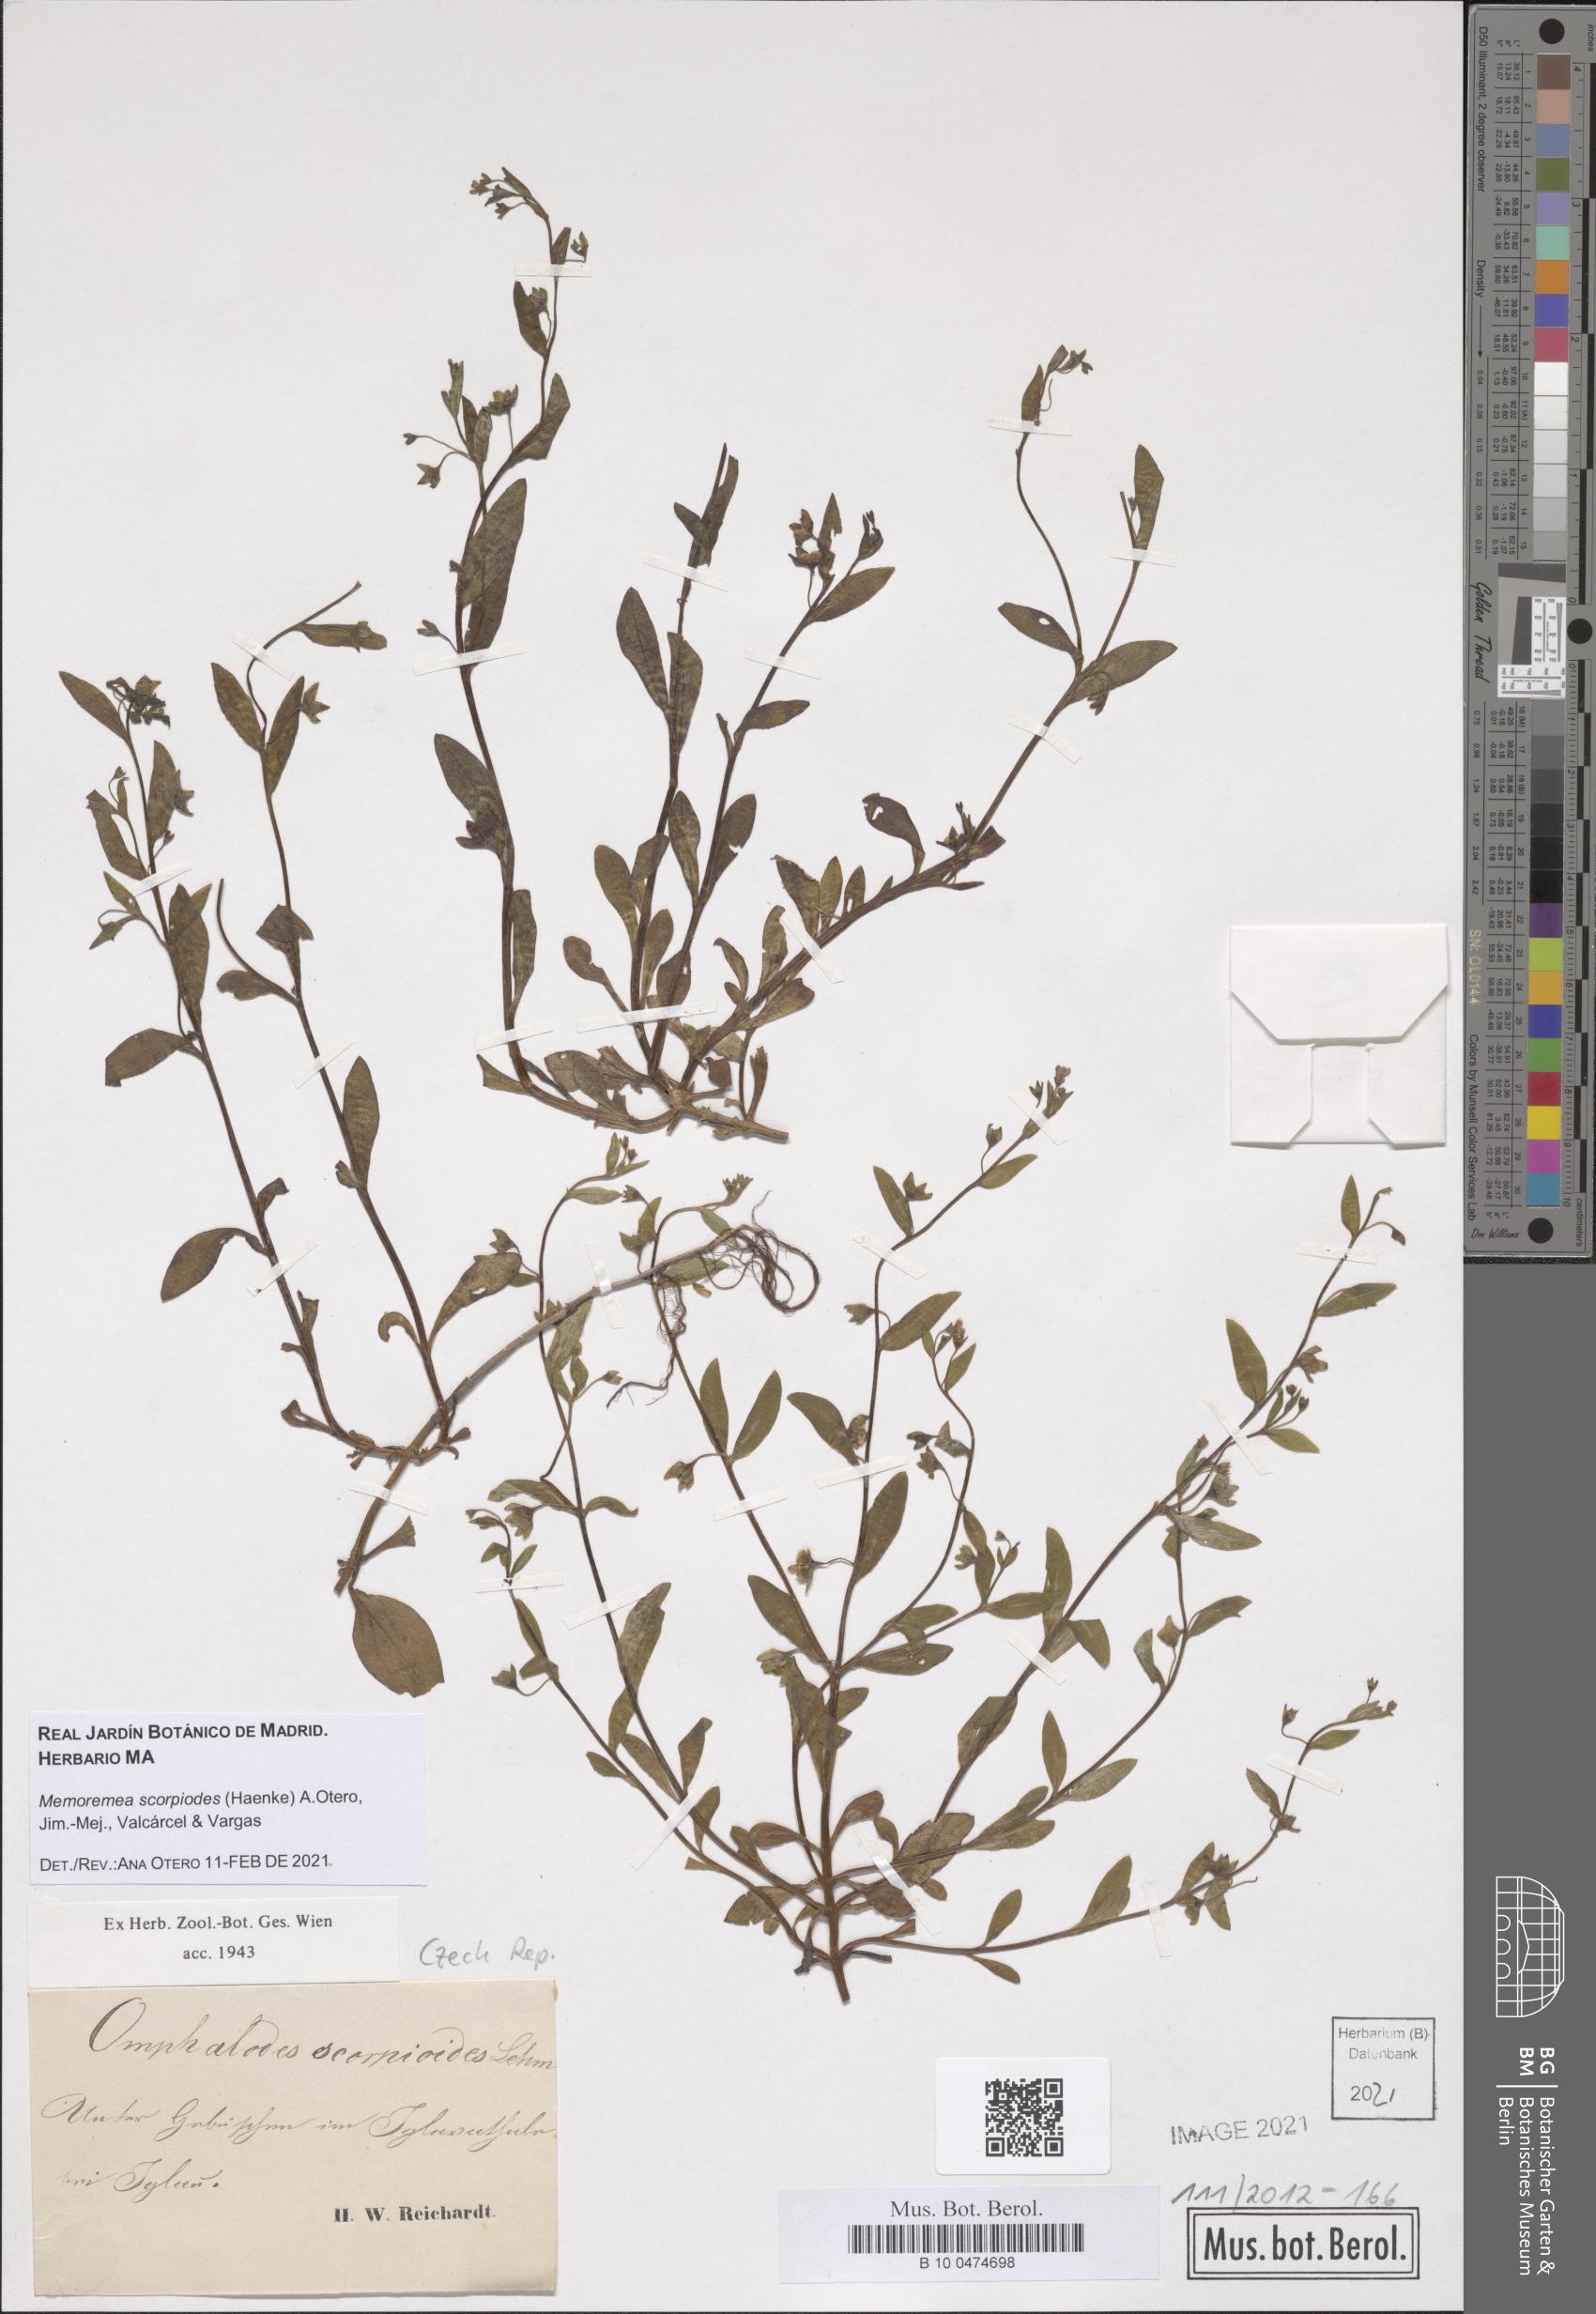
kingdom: Plantae
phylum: Tracheophyta
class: Magnoliopsida
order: Boraginales
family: Boraginaceae
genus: Memoremea
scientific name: Memoremea scorpioides
